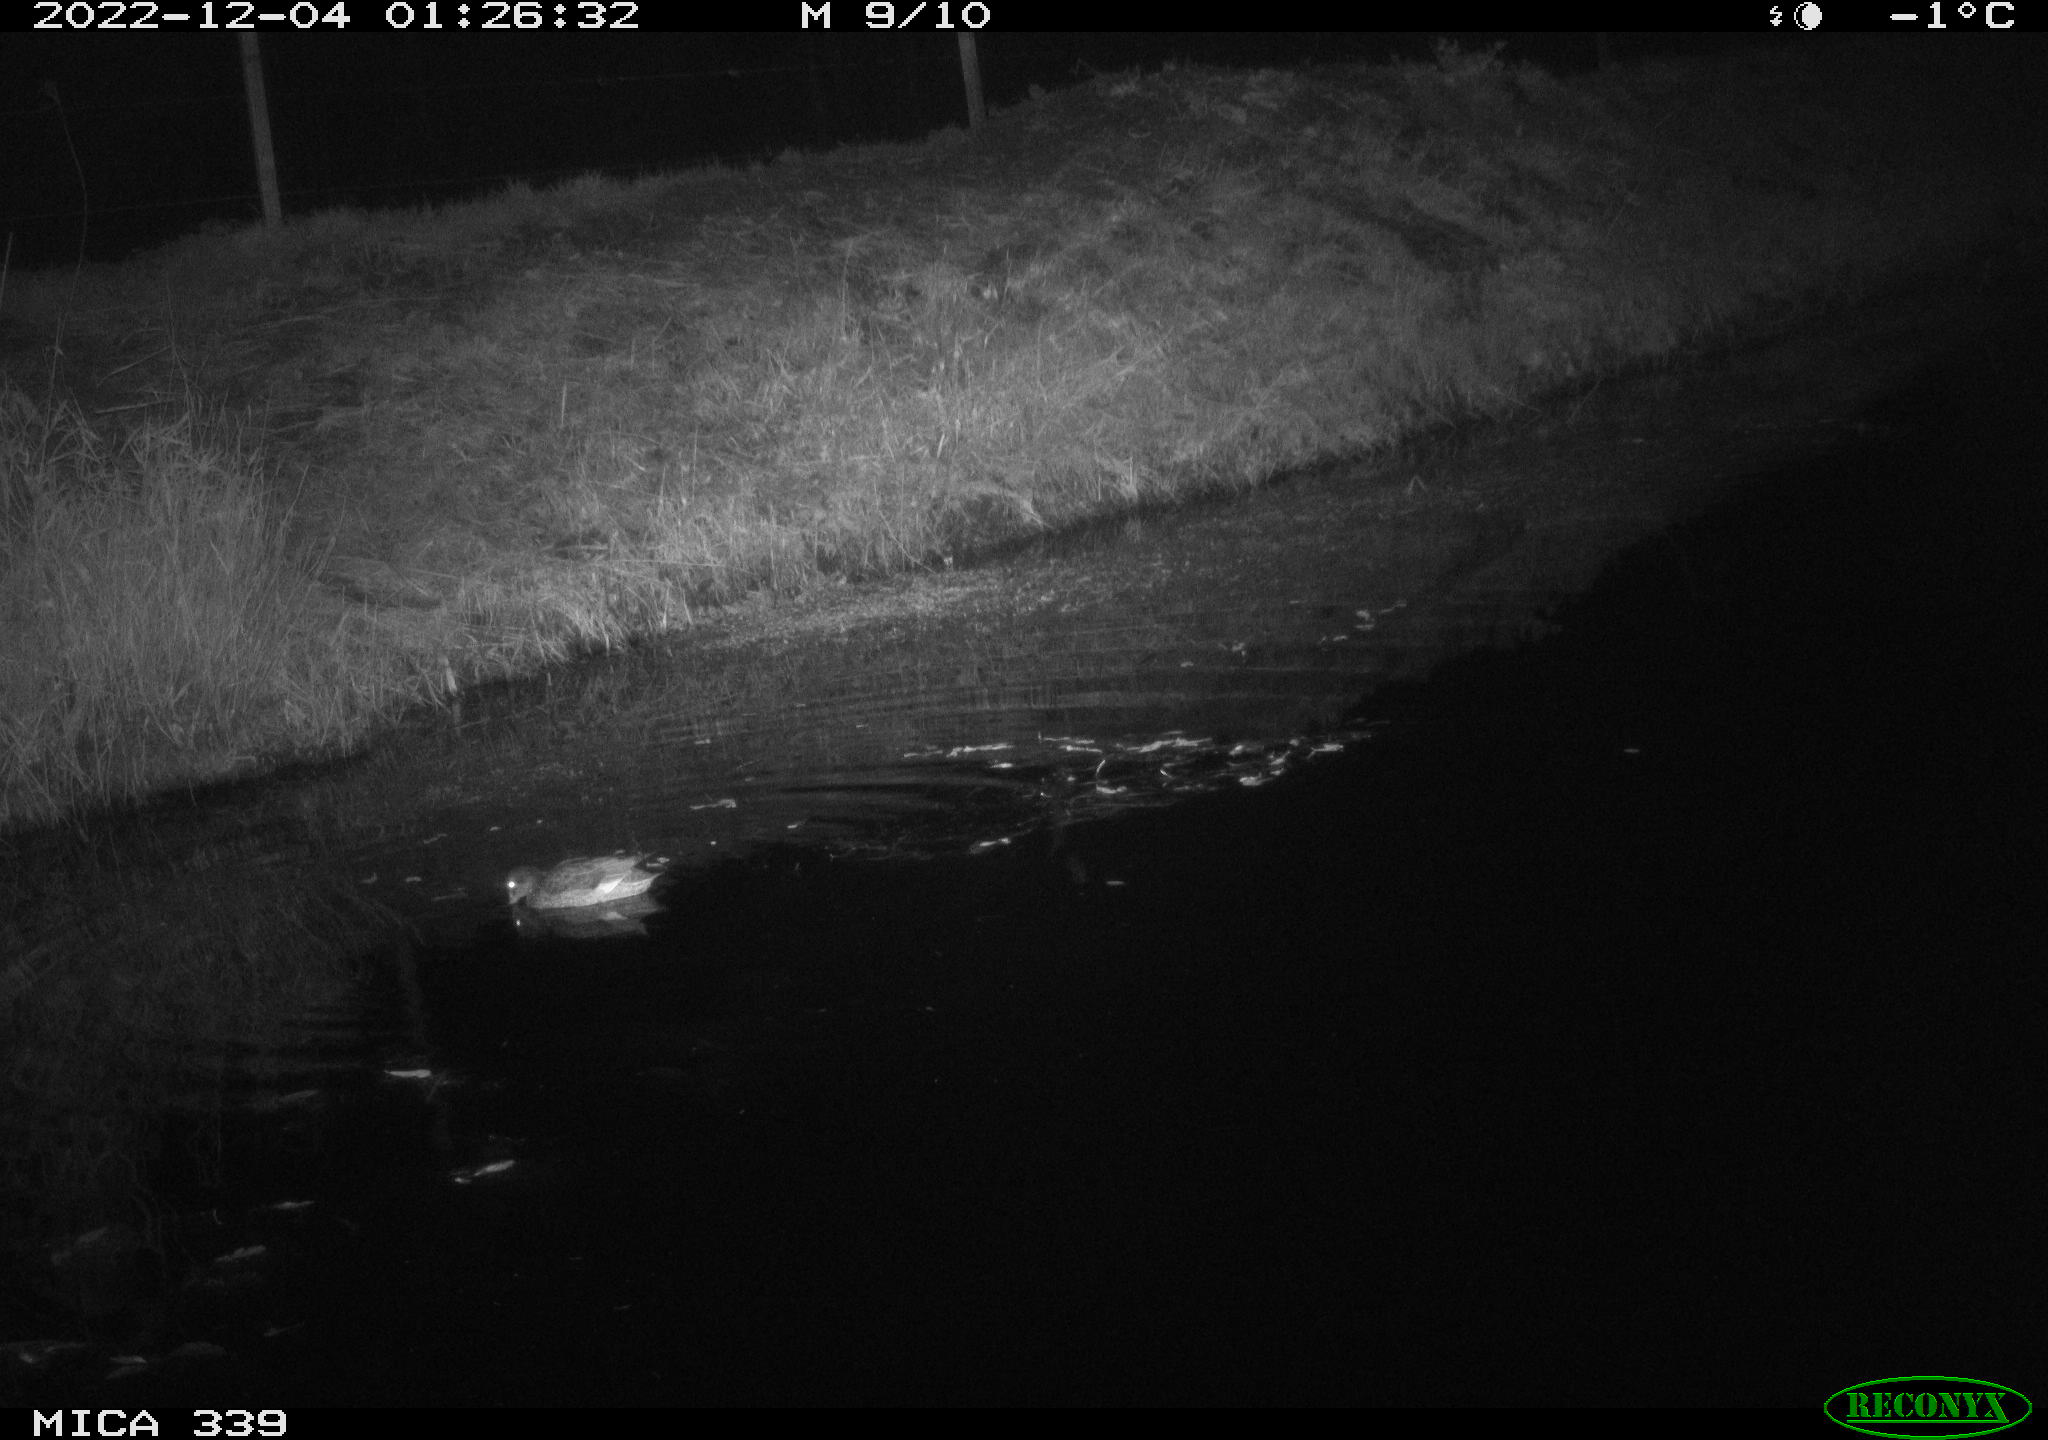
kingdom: Animalia
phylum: Chordata
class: Aves
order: Anseriformes
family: Anatidae
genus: Anas
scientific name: Anas platyrhynchos
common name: Mallard
